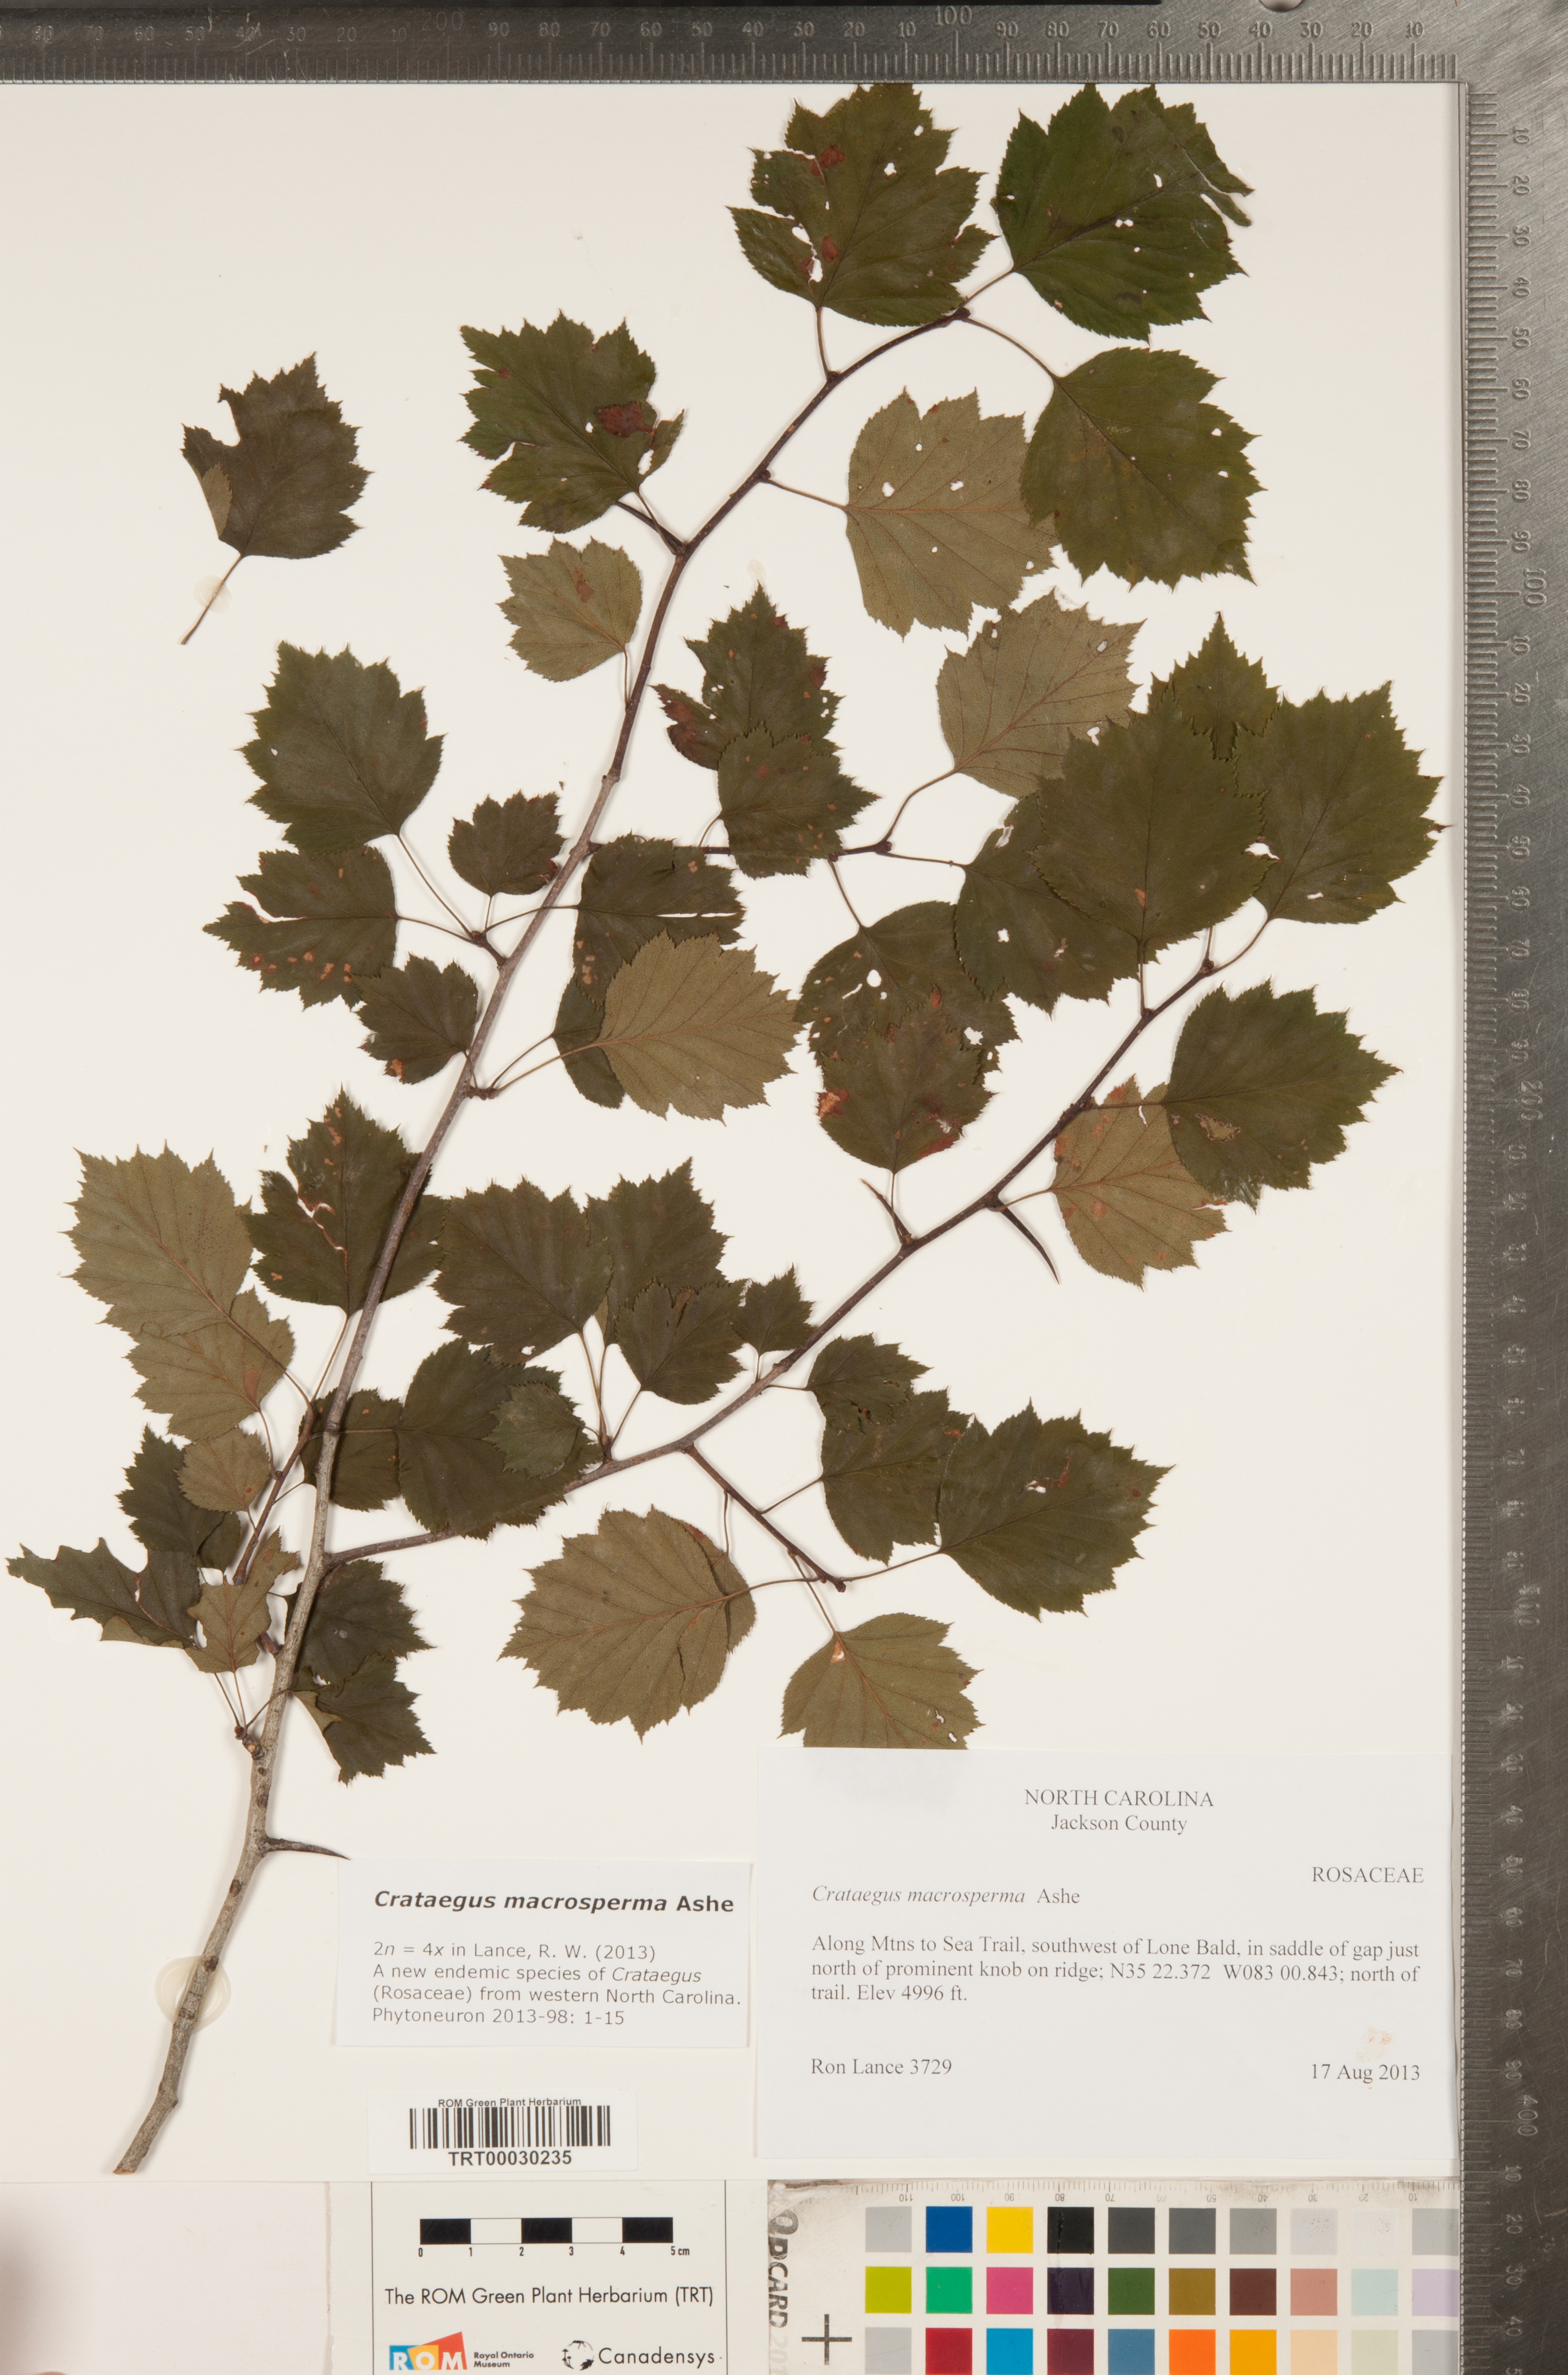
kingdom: Plantae
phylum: Tracheophyta
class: Magnoliopsida
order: Rosales
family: Rosaceae
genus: Crataegus
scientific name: Crataegus macrosperma
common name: Variable hawthorn
